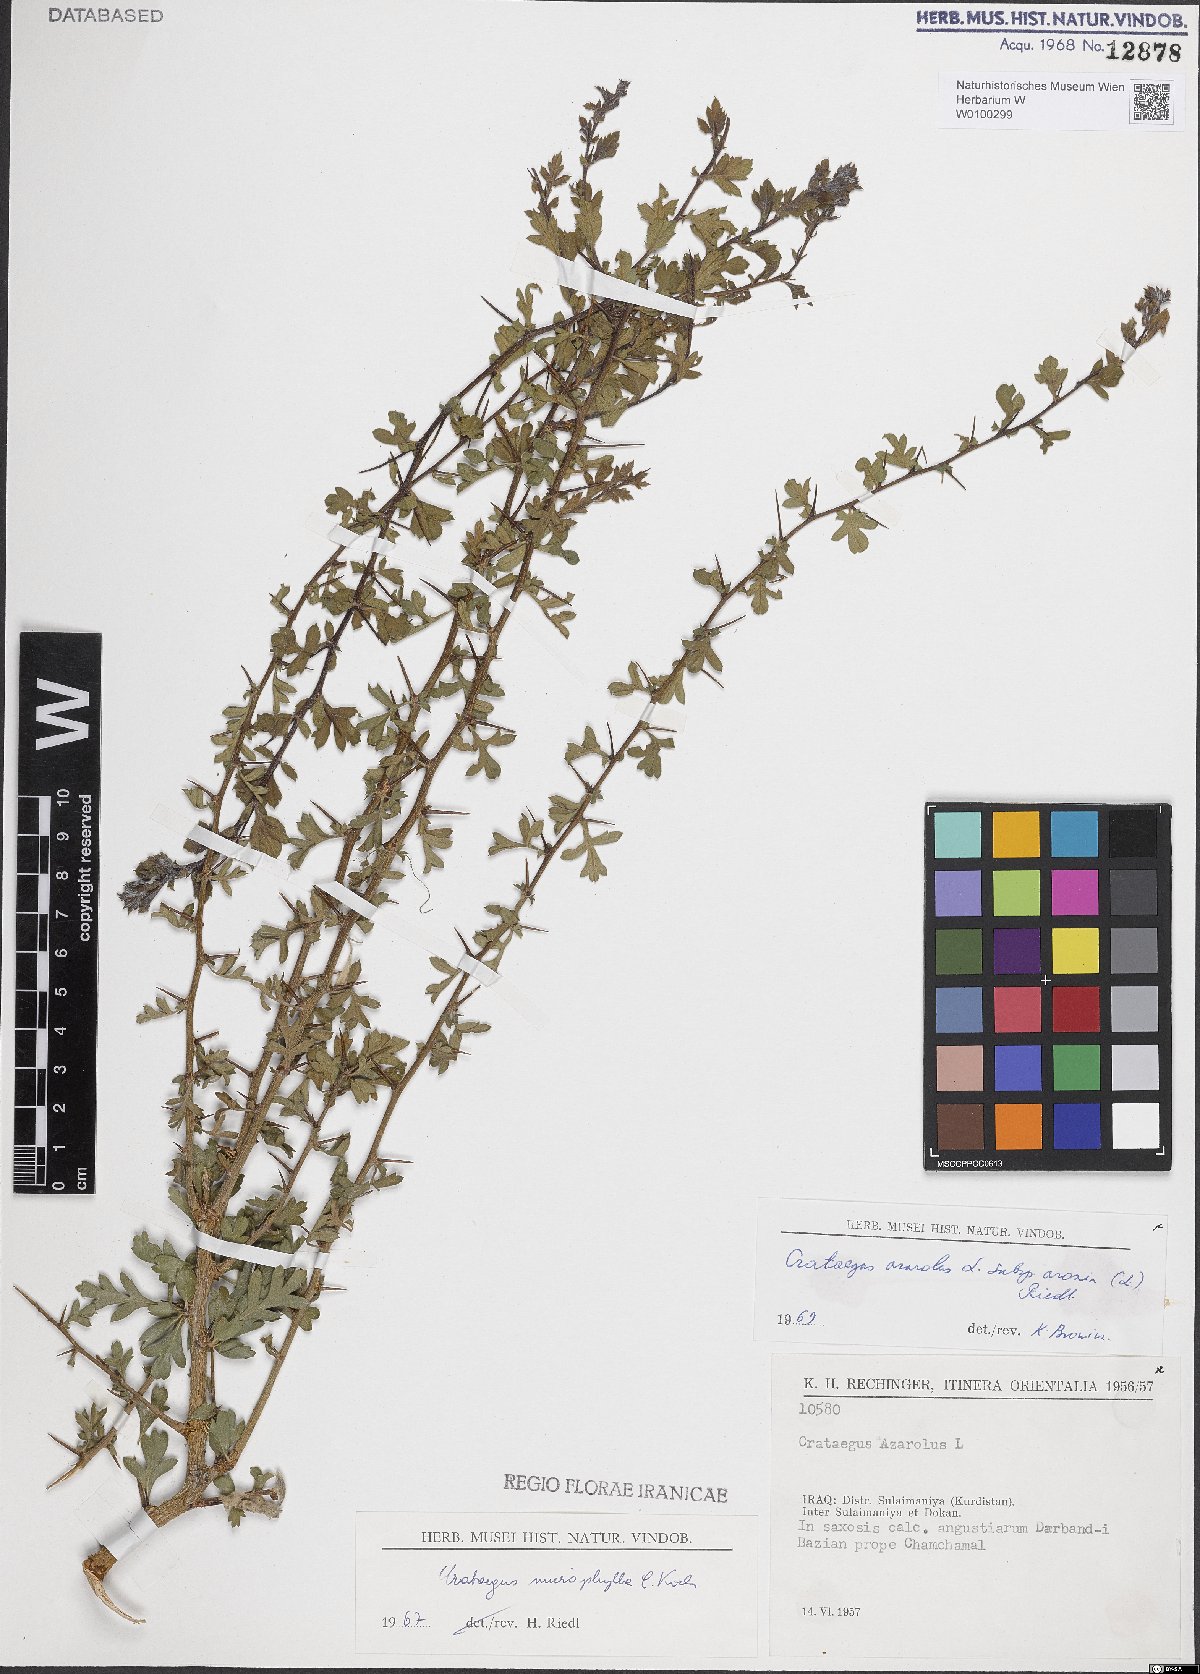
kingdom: Plantae
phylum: Tracheophyta
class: Magnoliopsida
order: Rosales
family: Rosaceae
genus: Crataegus
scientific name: Crataegus azarolus
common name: Azarole
